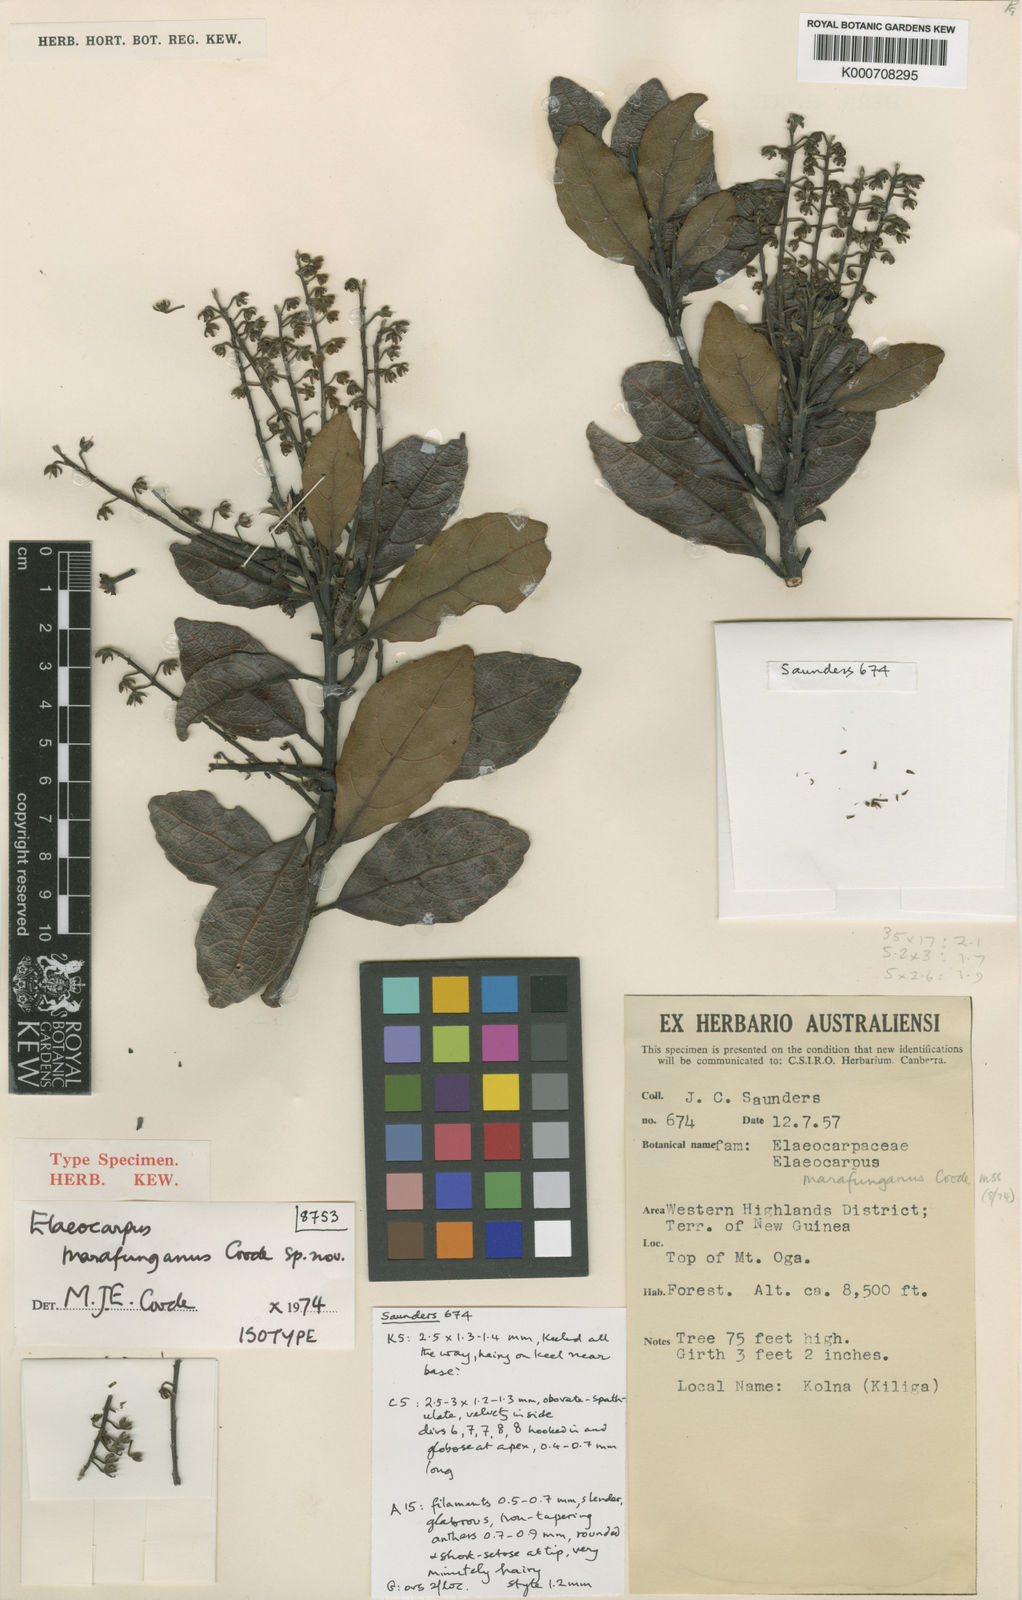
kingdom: Plantae
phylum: Tracheophyta
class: Magnoliopsida
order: Oxalidales
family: Elaeocarpaceae
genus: Elaeocarpus
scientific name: Elaeocarpus marafunganus
